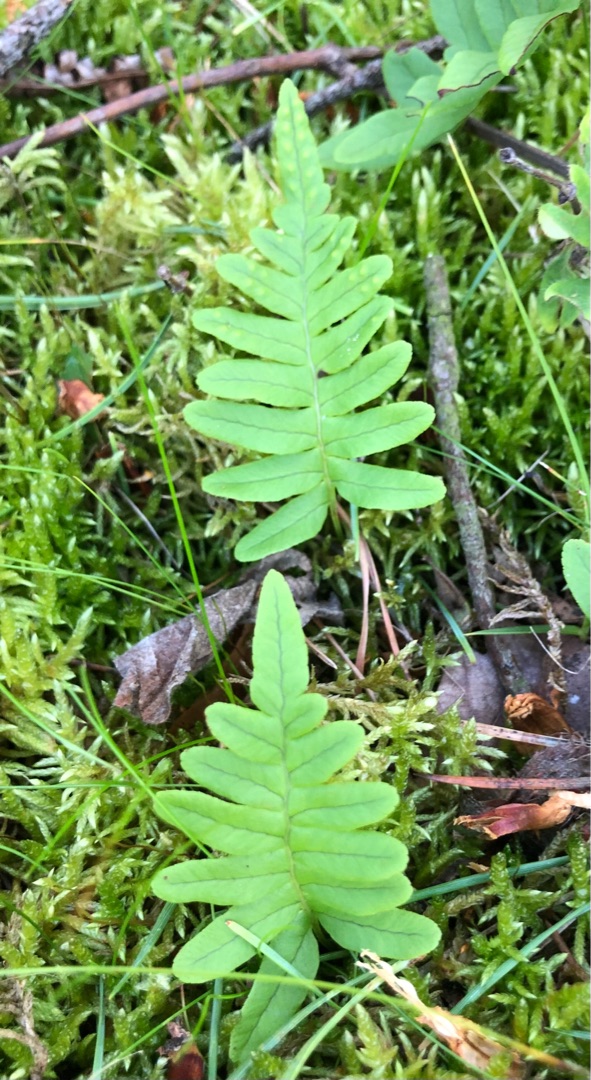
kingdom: Plantae
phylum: Tracheophyta
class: Polypodiopsida
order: Polypodiales
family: Polypodiaceae
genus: Polypodium
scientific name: Polypodium vulgare
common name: Almindelig engelsød
